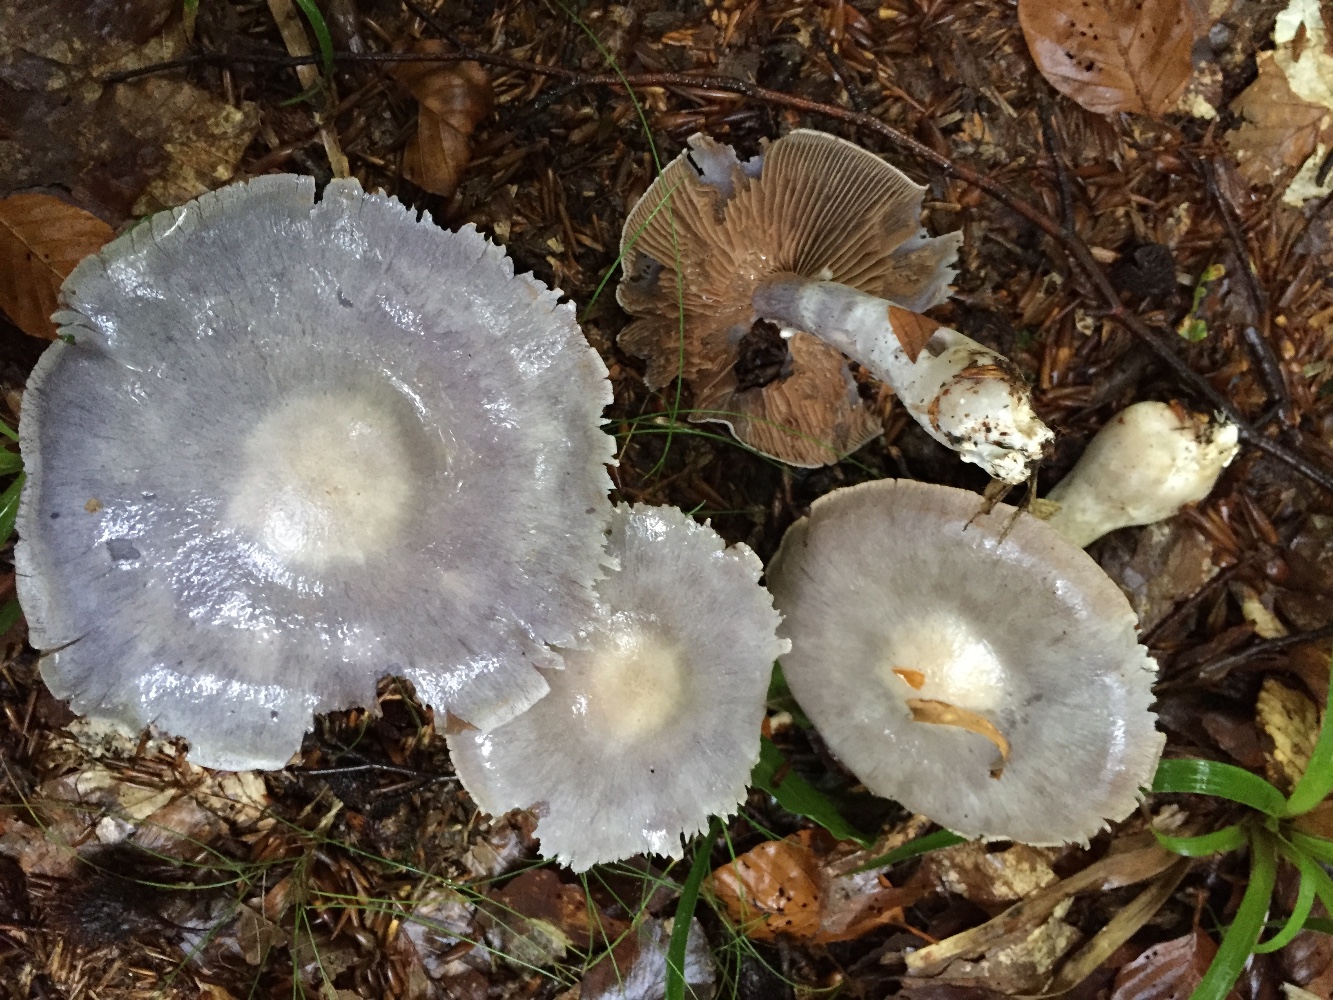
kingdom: Fungi
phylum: Basidiomycota
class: Agaricomycetes
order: Agaricales
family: Cortinariaceae
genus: Cortinarius
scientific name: Cortinarius alboviolaceus
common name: lysviolet slørhat
